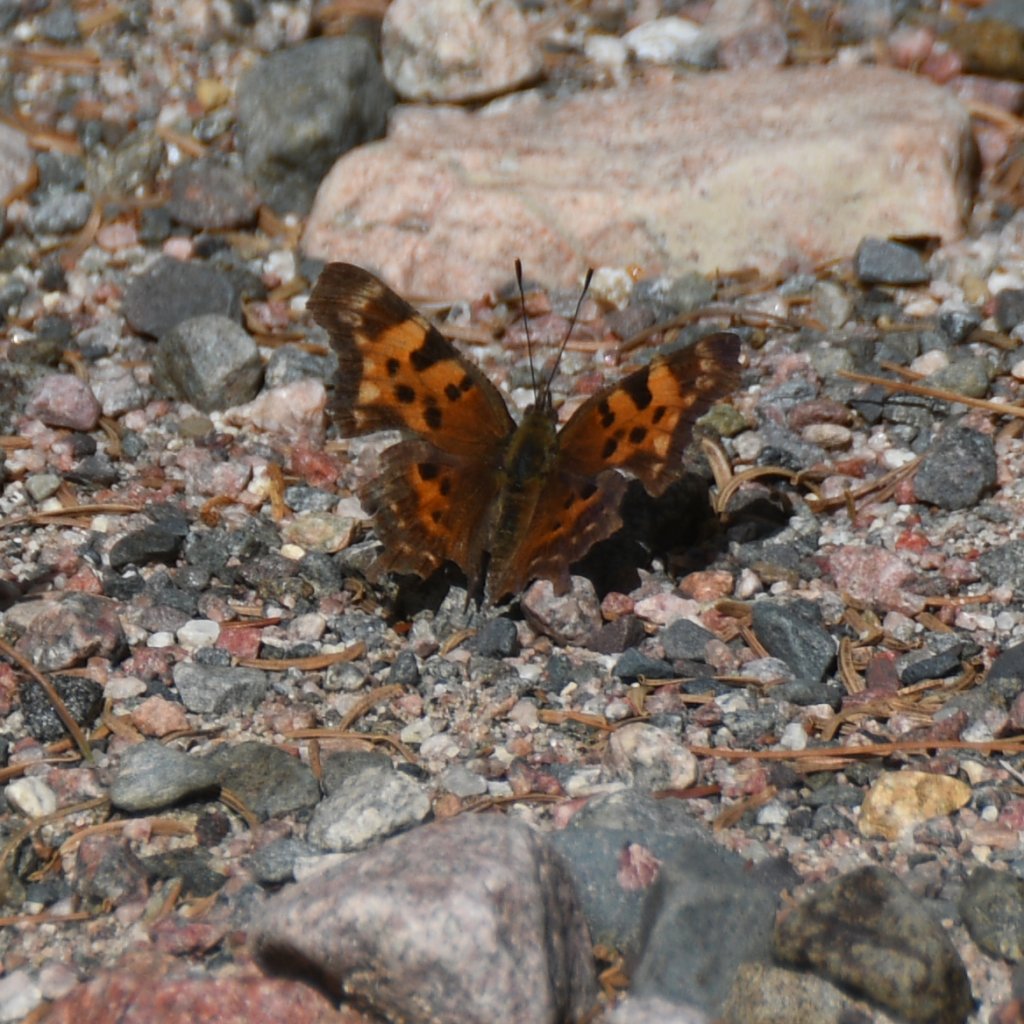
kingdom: Animalia
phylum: Arthropoda
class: Insecta
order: Lepidoptera
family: Nymphalidae
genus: Polygonia
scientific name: Polygonia faunus
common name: Green Comma
